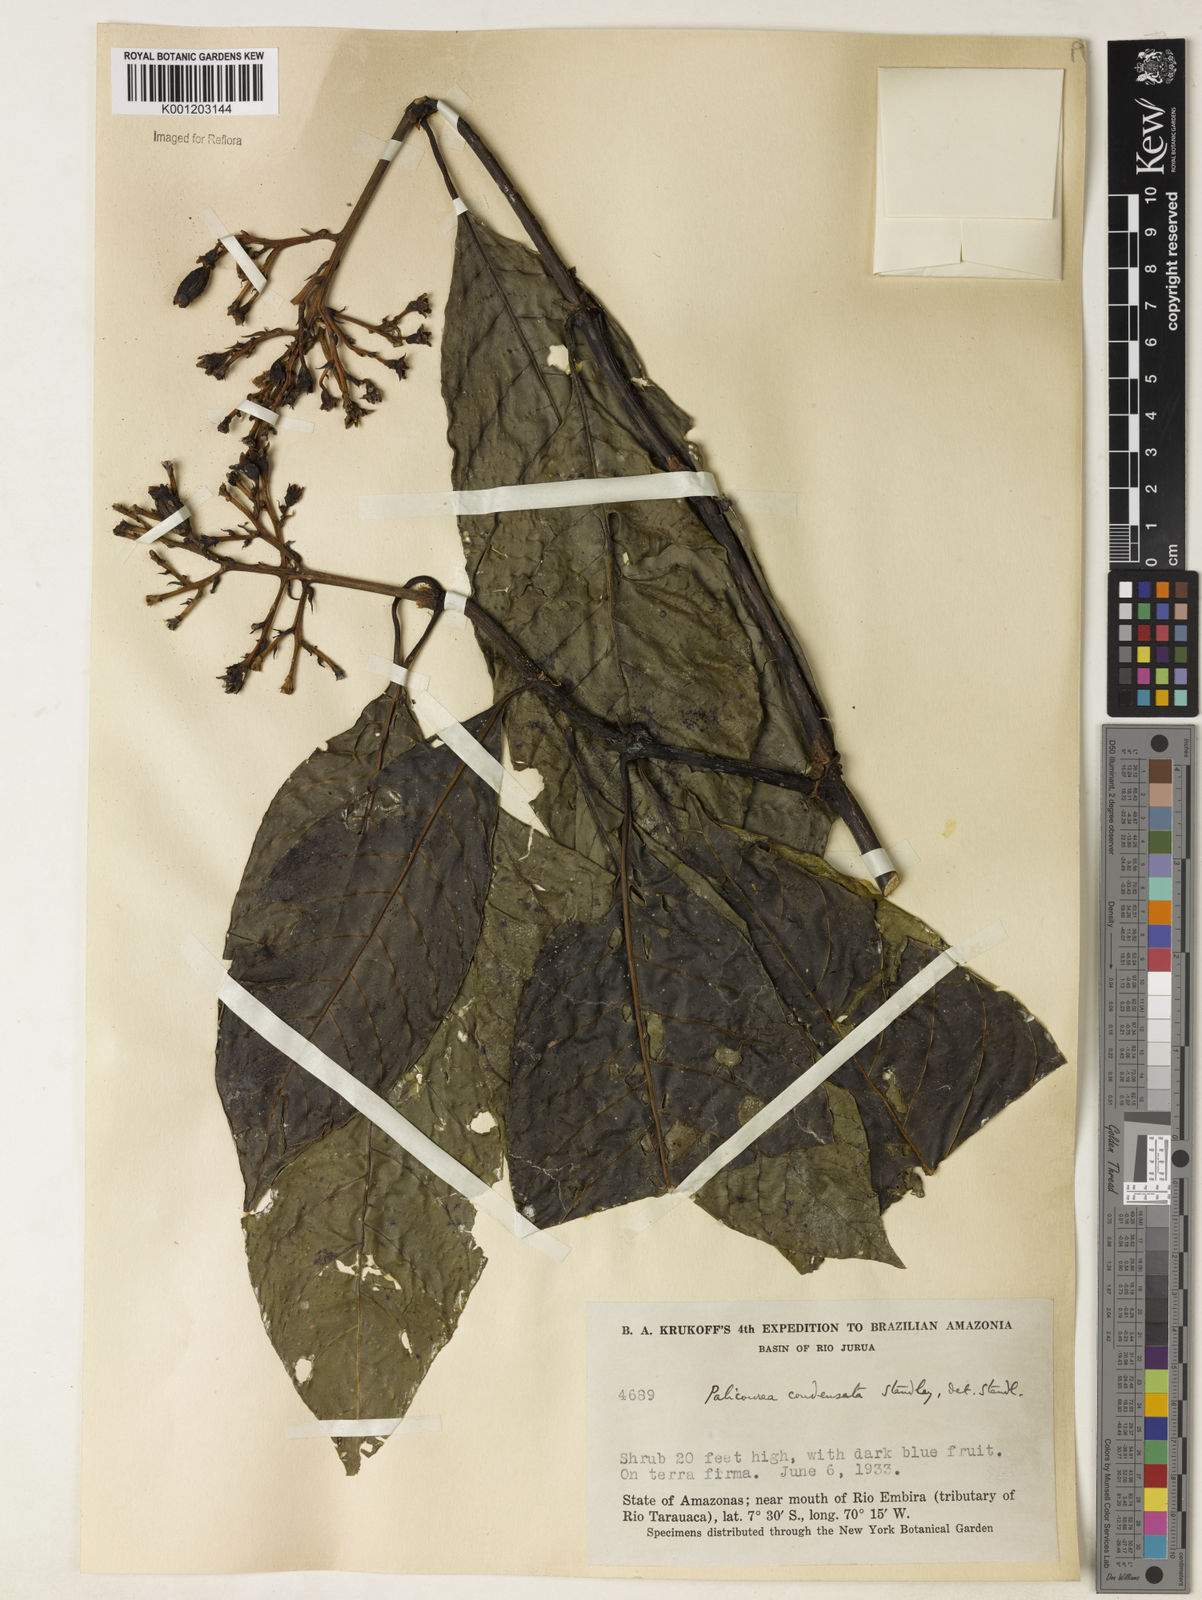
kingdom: Plantae
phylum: Tracheophyta
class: Magnoliopsida
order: Gentianales
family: Rubiaceae
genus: Palicourea
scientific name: Palicourea lasiantha
